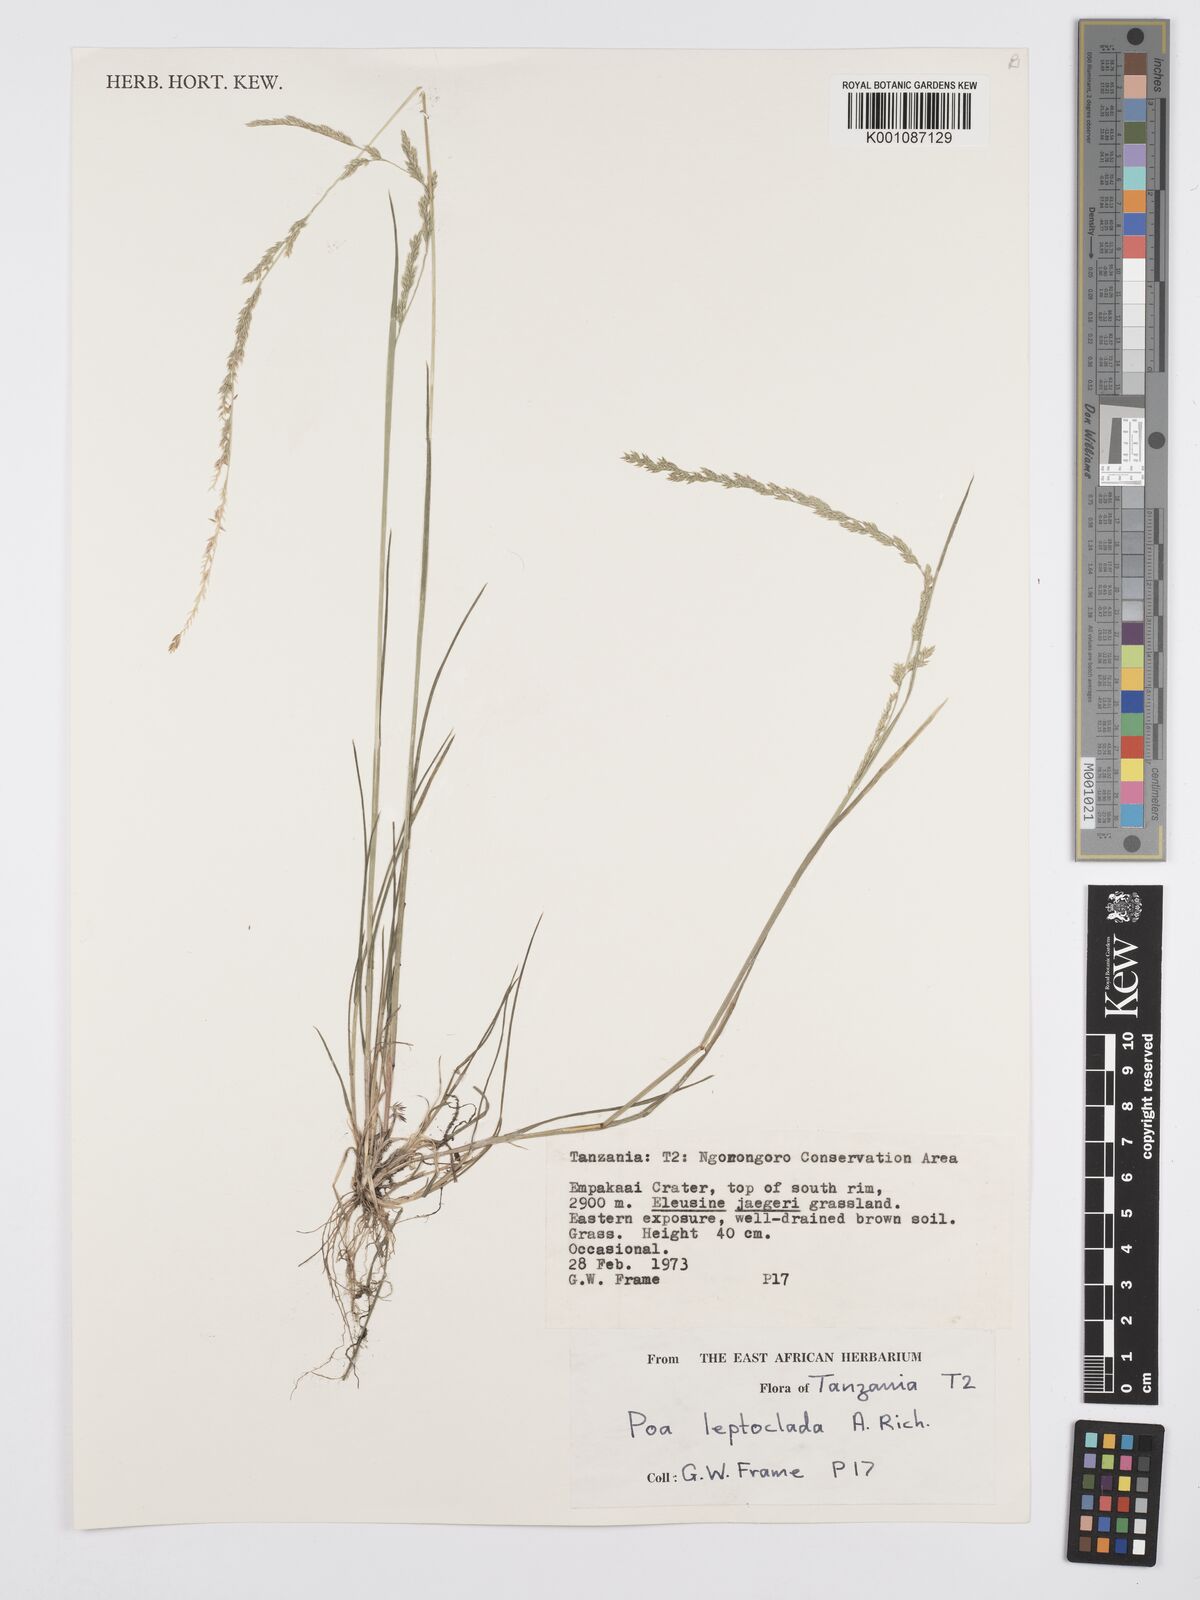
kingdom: Plantae
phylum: Tracheophyta
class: Liliopsida
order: Poales
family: Poaceae
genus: Poa
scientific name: Poa leptoclada
